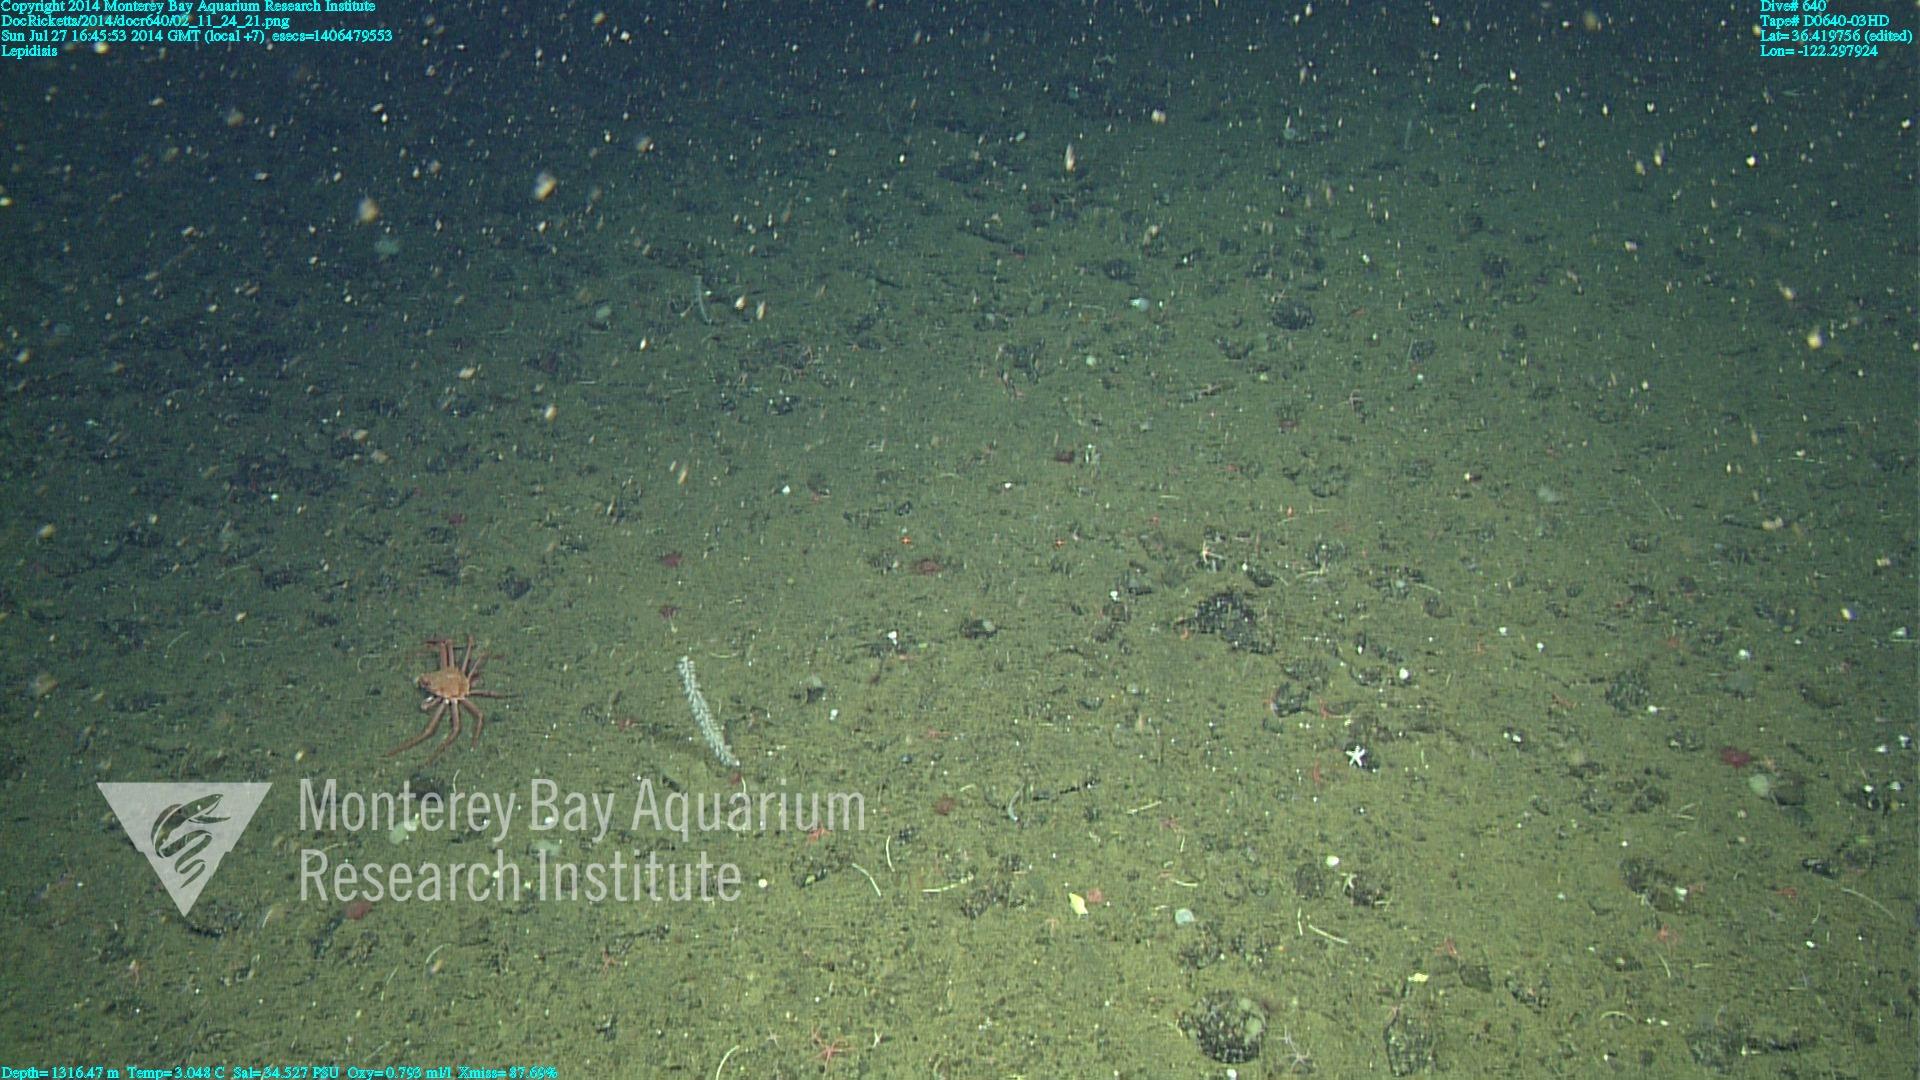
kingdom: Animalia
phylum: Cnidaria
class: Anthozoa
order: Scleralcyonacea
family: Keratoisididae
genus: Lepidisis
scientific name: Lepidisis
